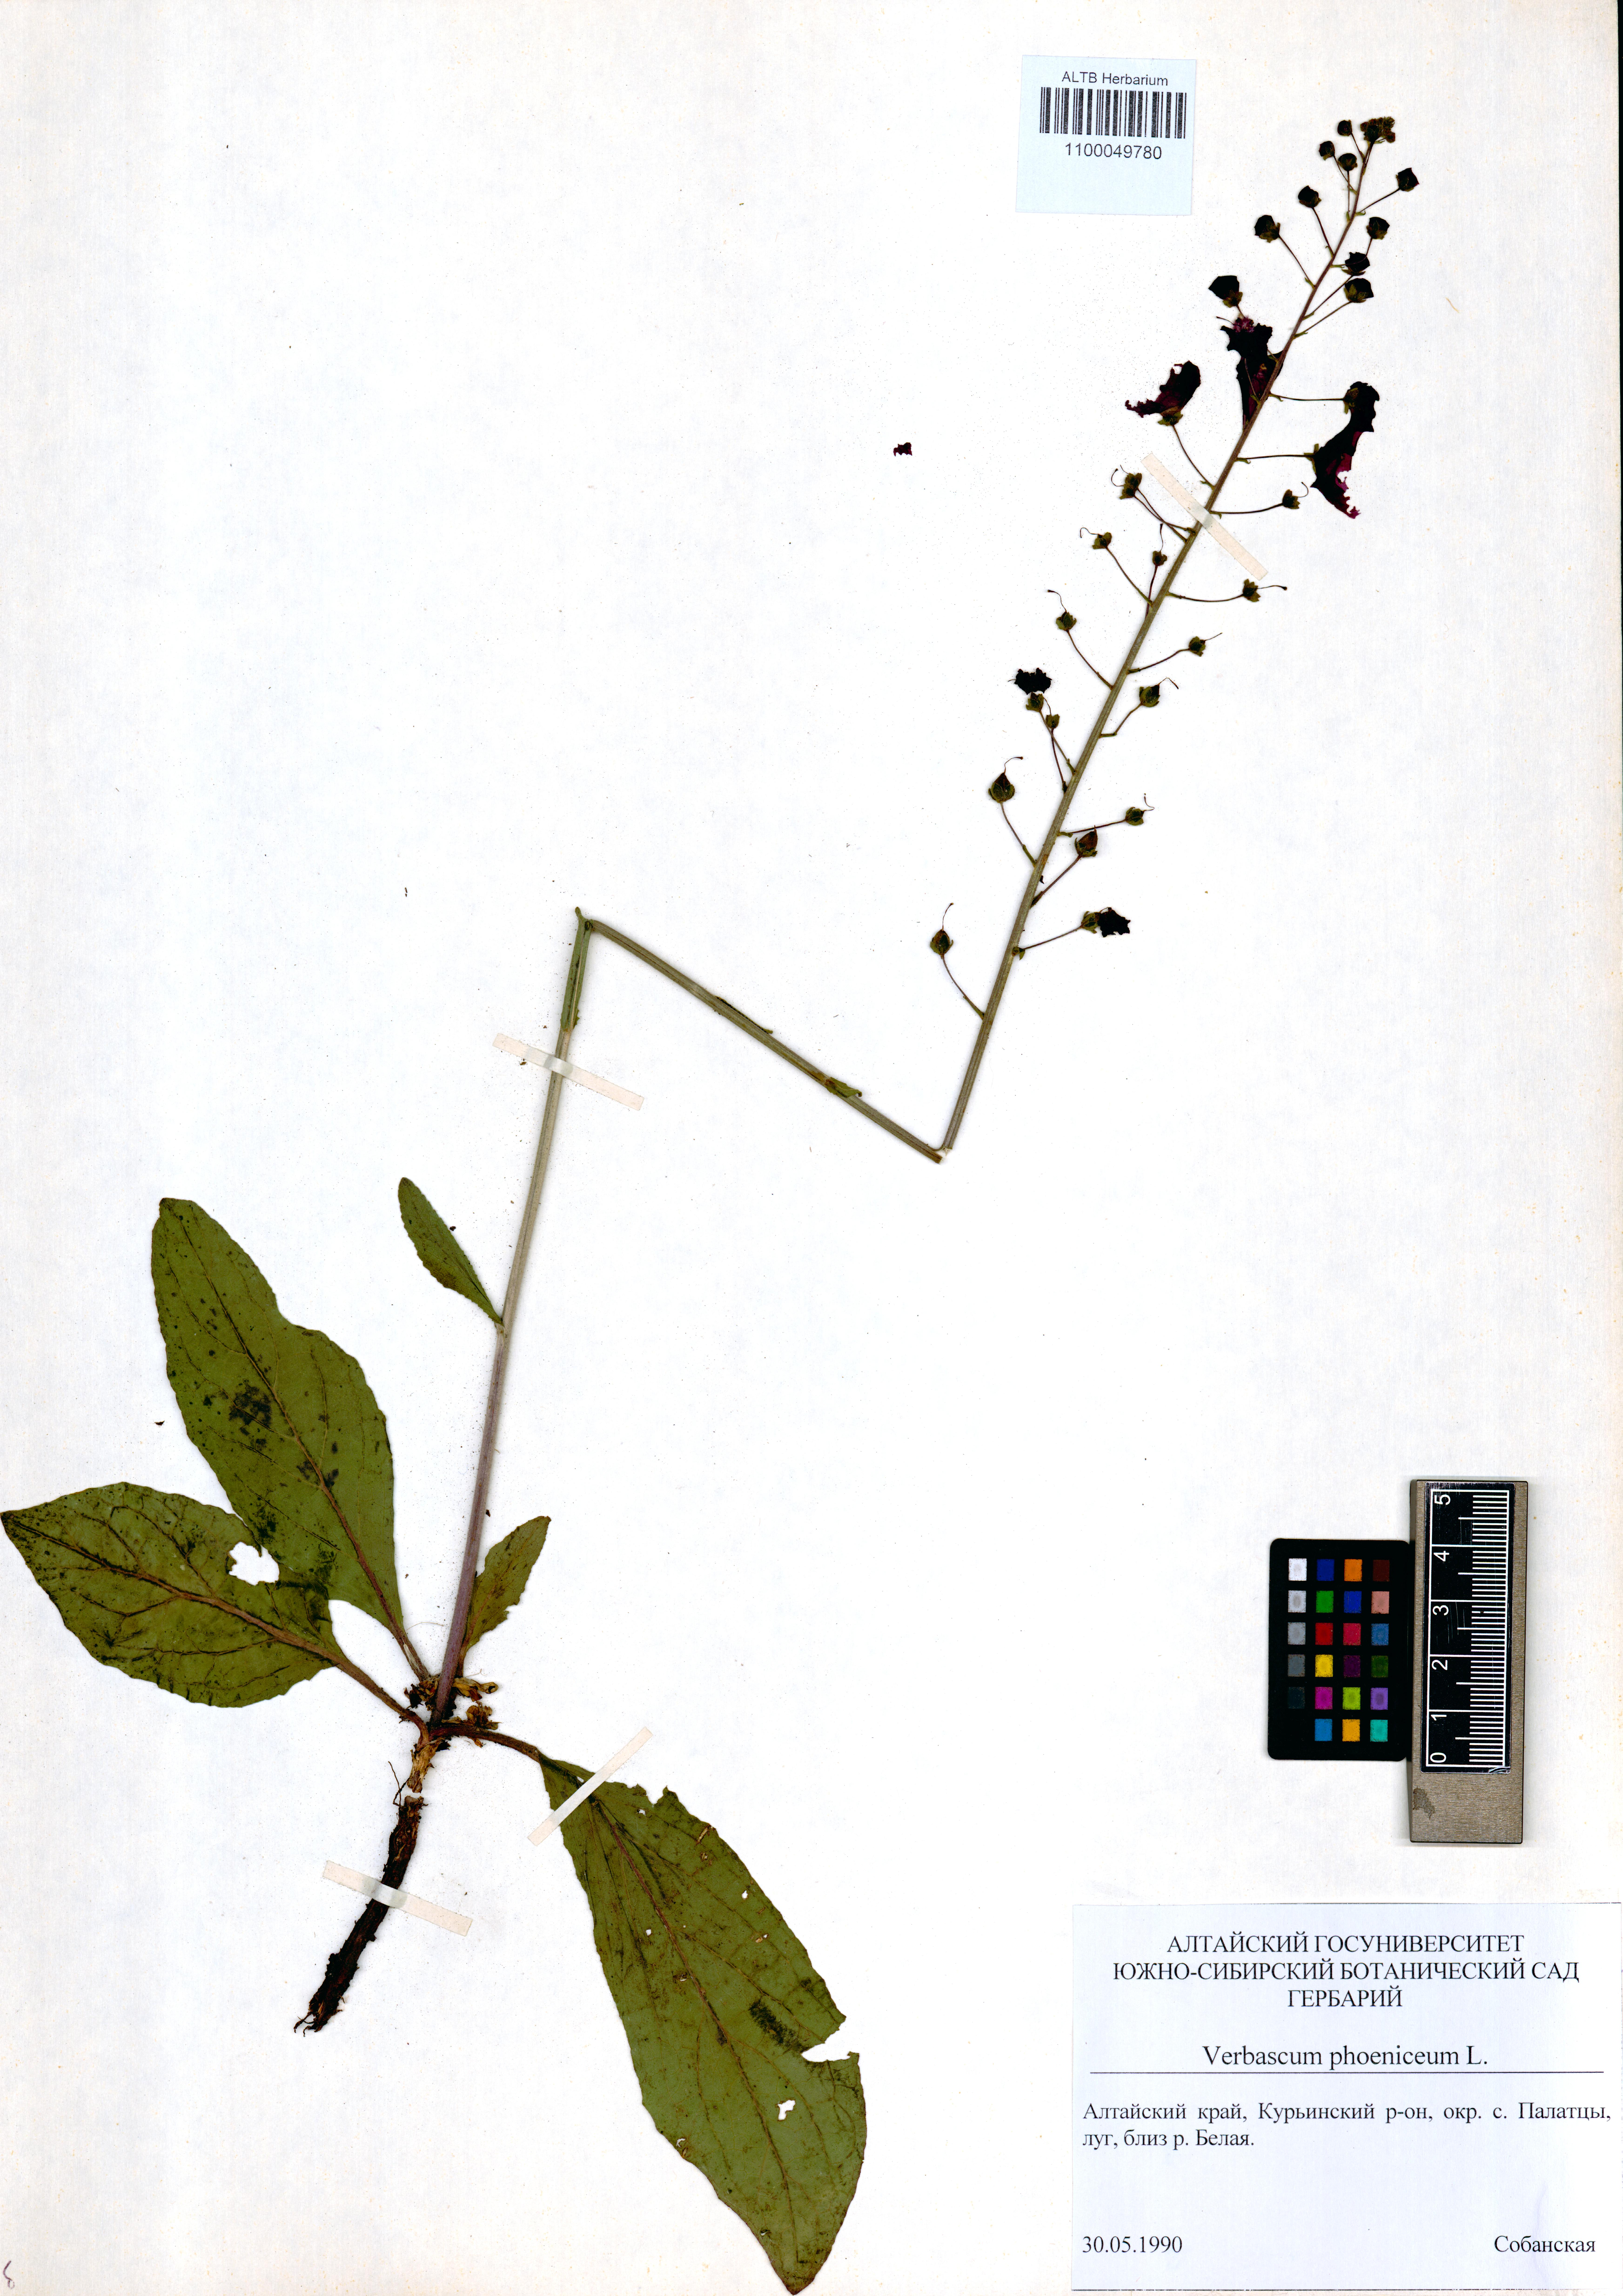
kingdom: Plantae
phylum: Tracheophyta
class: Magnoliopsida
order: Lamiales
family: Scrophulariaceae
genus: Verbascum
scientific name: Verbascum phoeniceum
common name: Purple mullein
